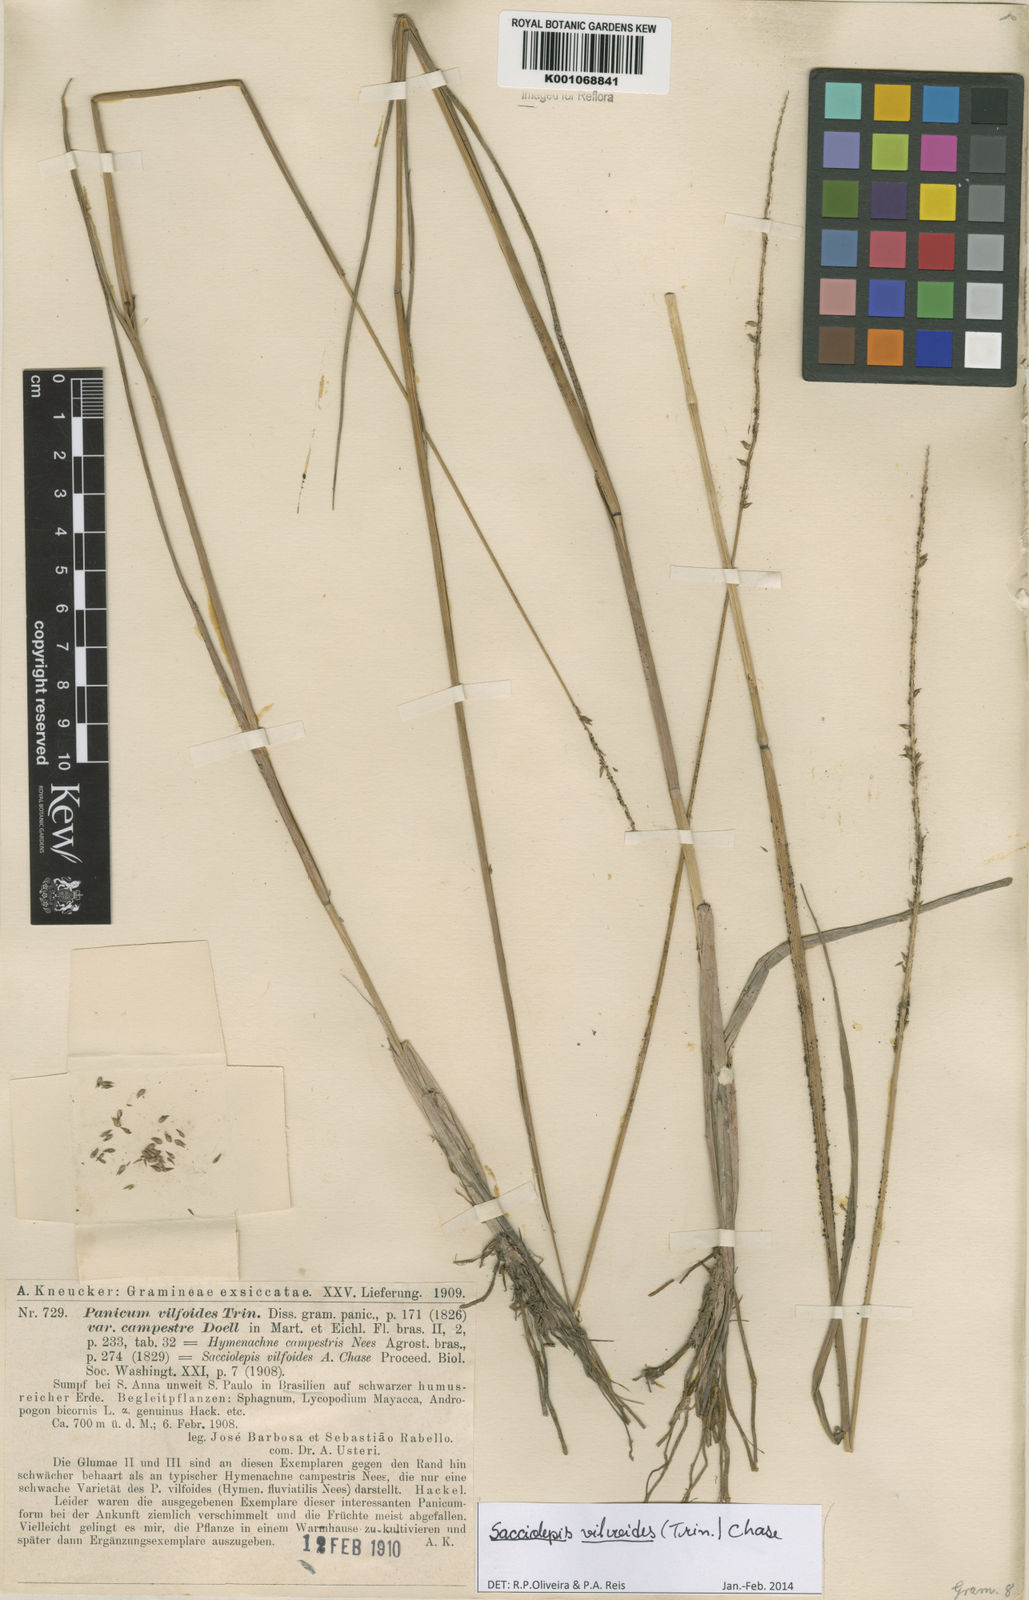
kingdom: Plantae
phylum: Tracheophyta
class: Liliopsida
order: Poales
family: Poaceae
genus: Sacciolepis
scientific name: Sacciolepis vilvoides
